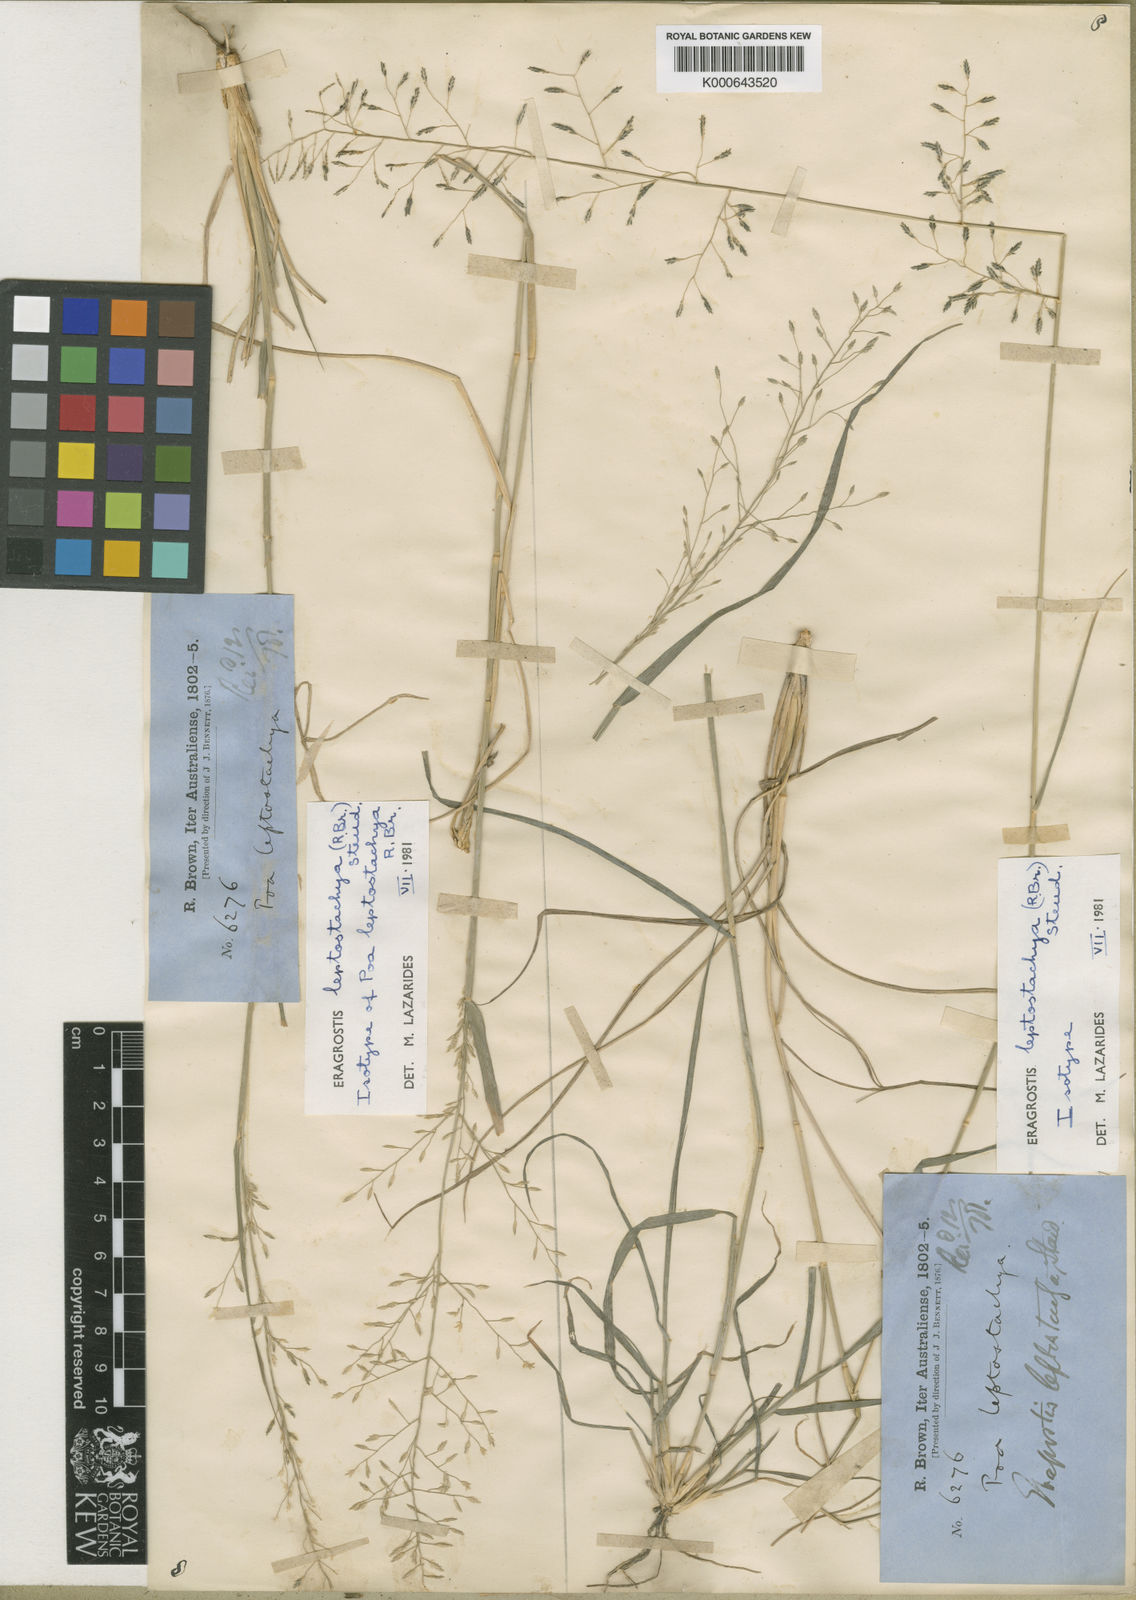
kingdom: Plantae
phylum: Tracheophyta
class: Liliopsida
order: Poales
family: Poaceae
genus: Eragrostis
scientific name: Eragrostis leptostachya
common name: Australian lovegrass
